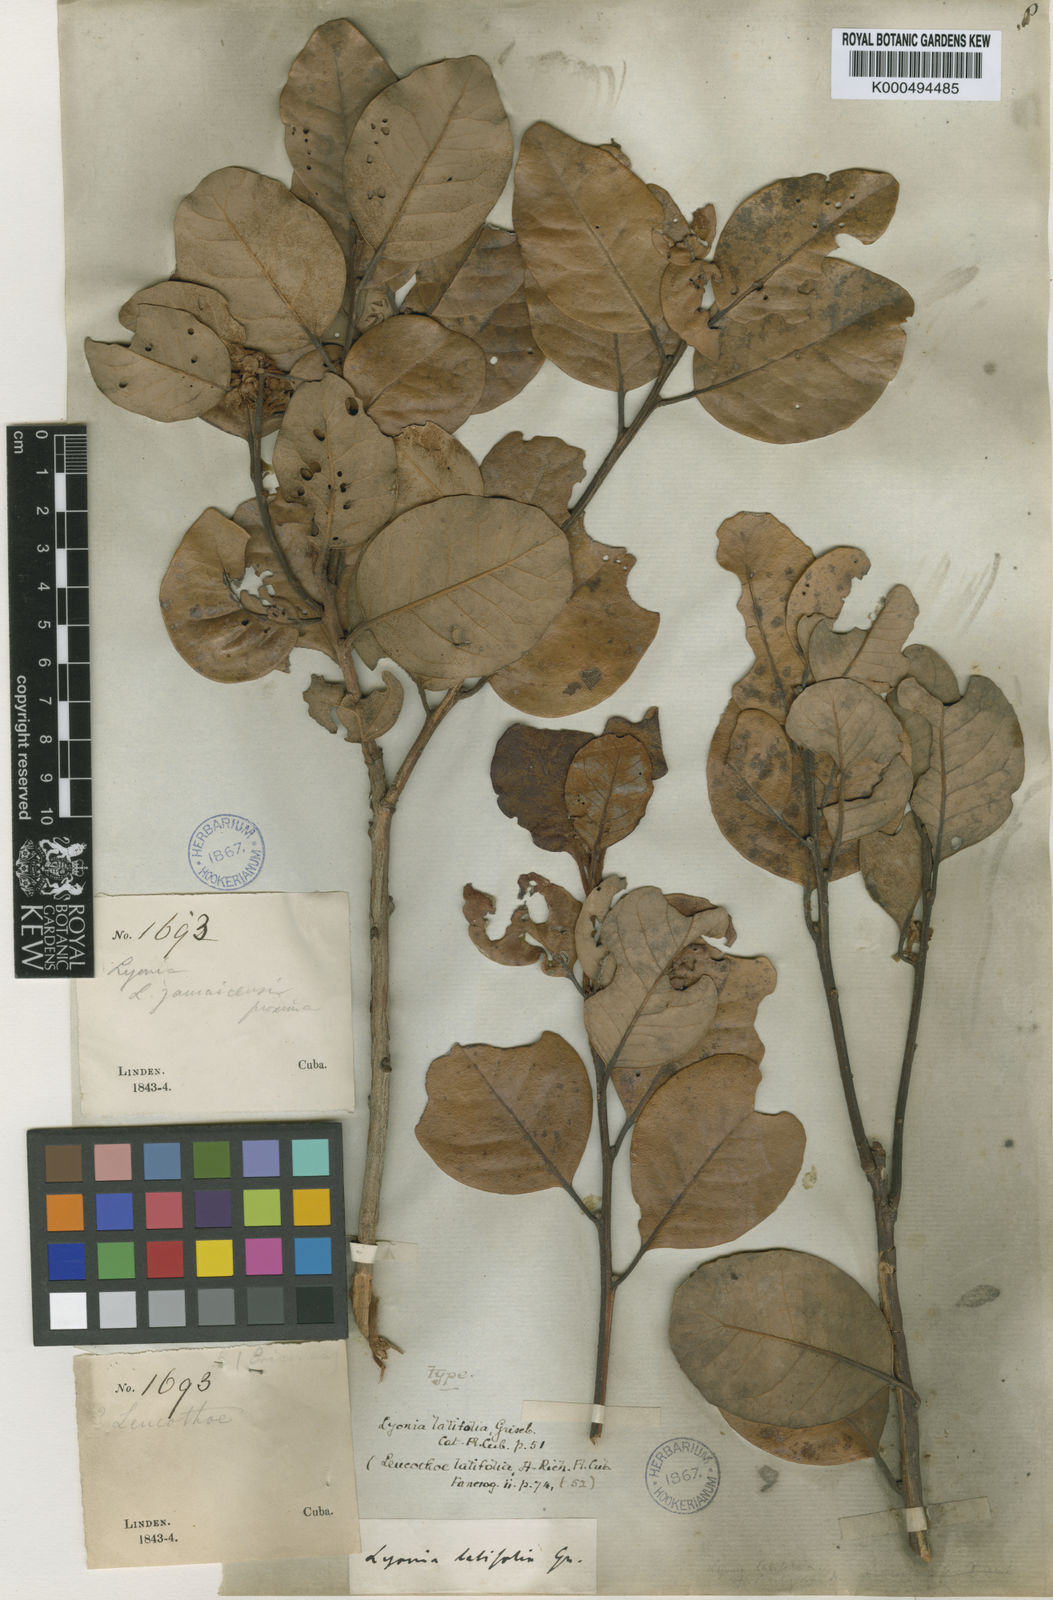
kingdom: Plantae
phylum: Tracheophyta
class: Magnoliopsida
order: Ericales
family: Ericaceae
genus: Lyonia
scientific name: Lyonia latifolia
